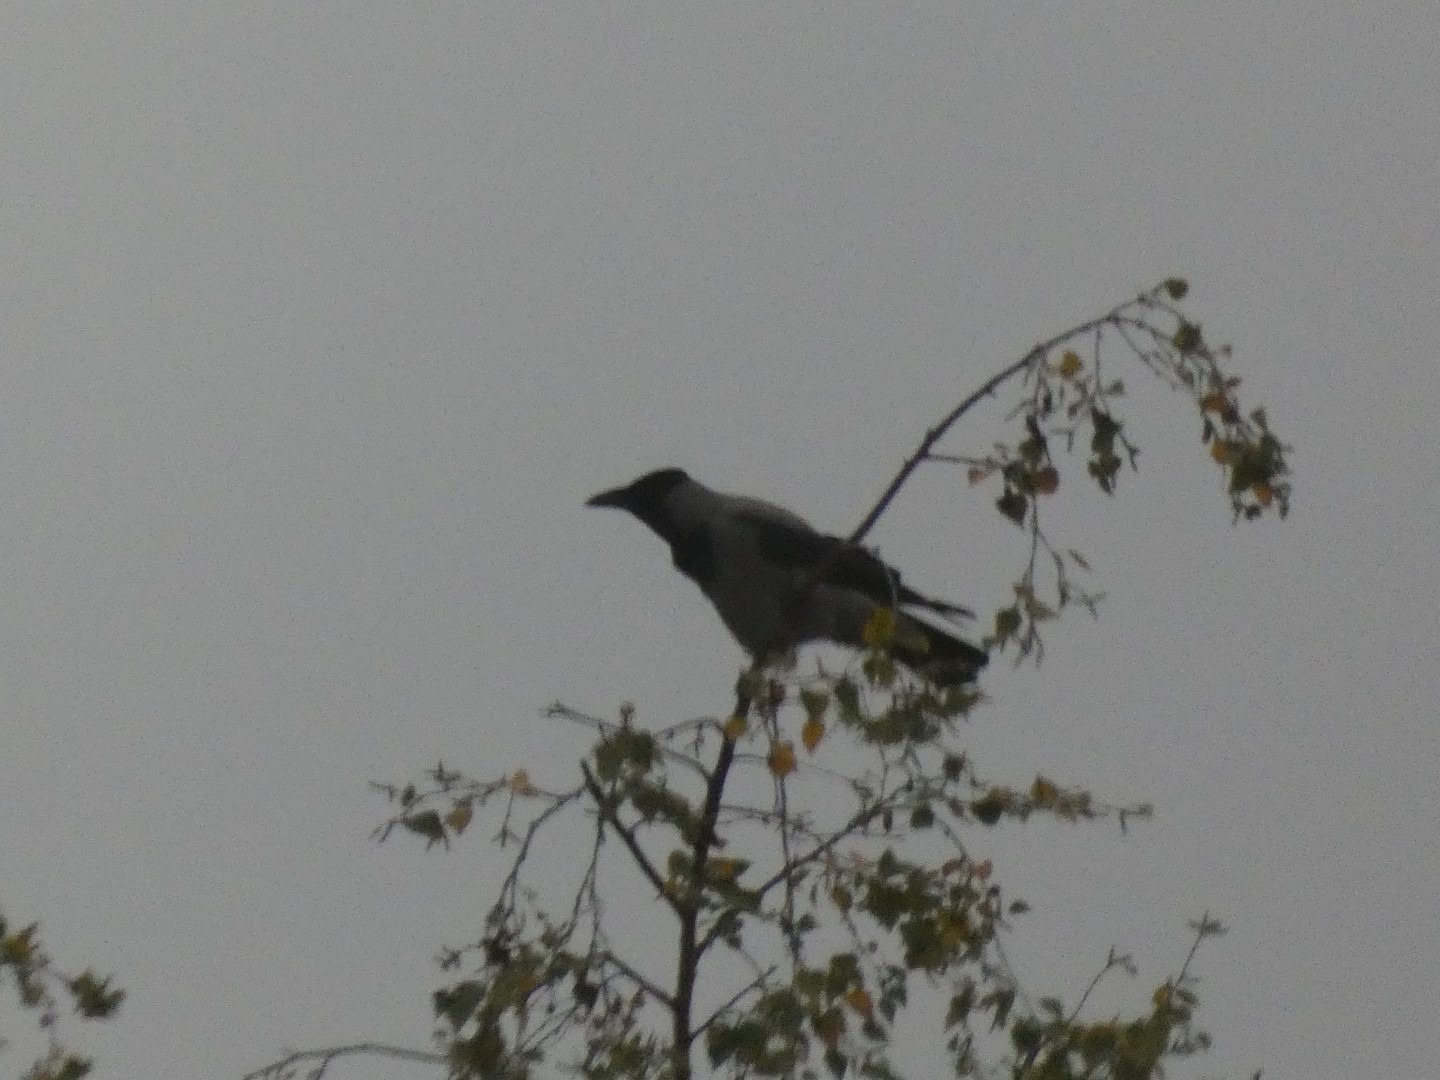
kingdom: Animalia
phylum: Chordata
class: Aves
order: Passeriformes
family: Corvidae
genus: Corvus
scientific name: Corvus cornix
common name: Gråkrage
